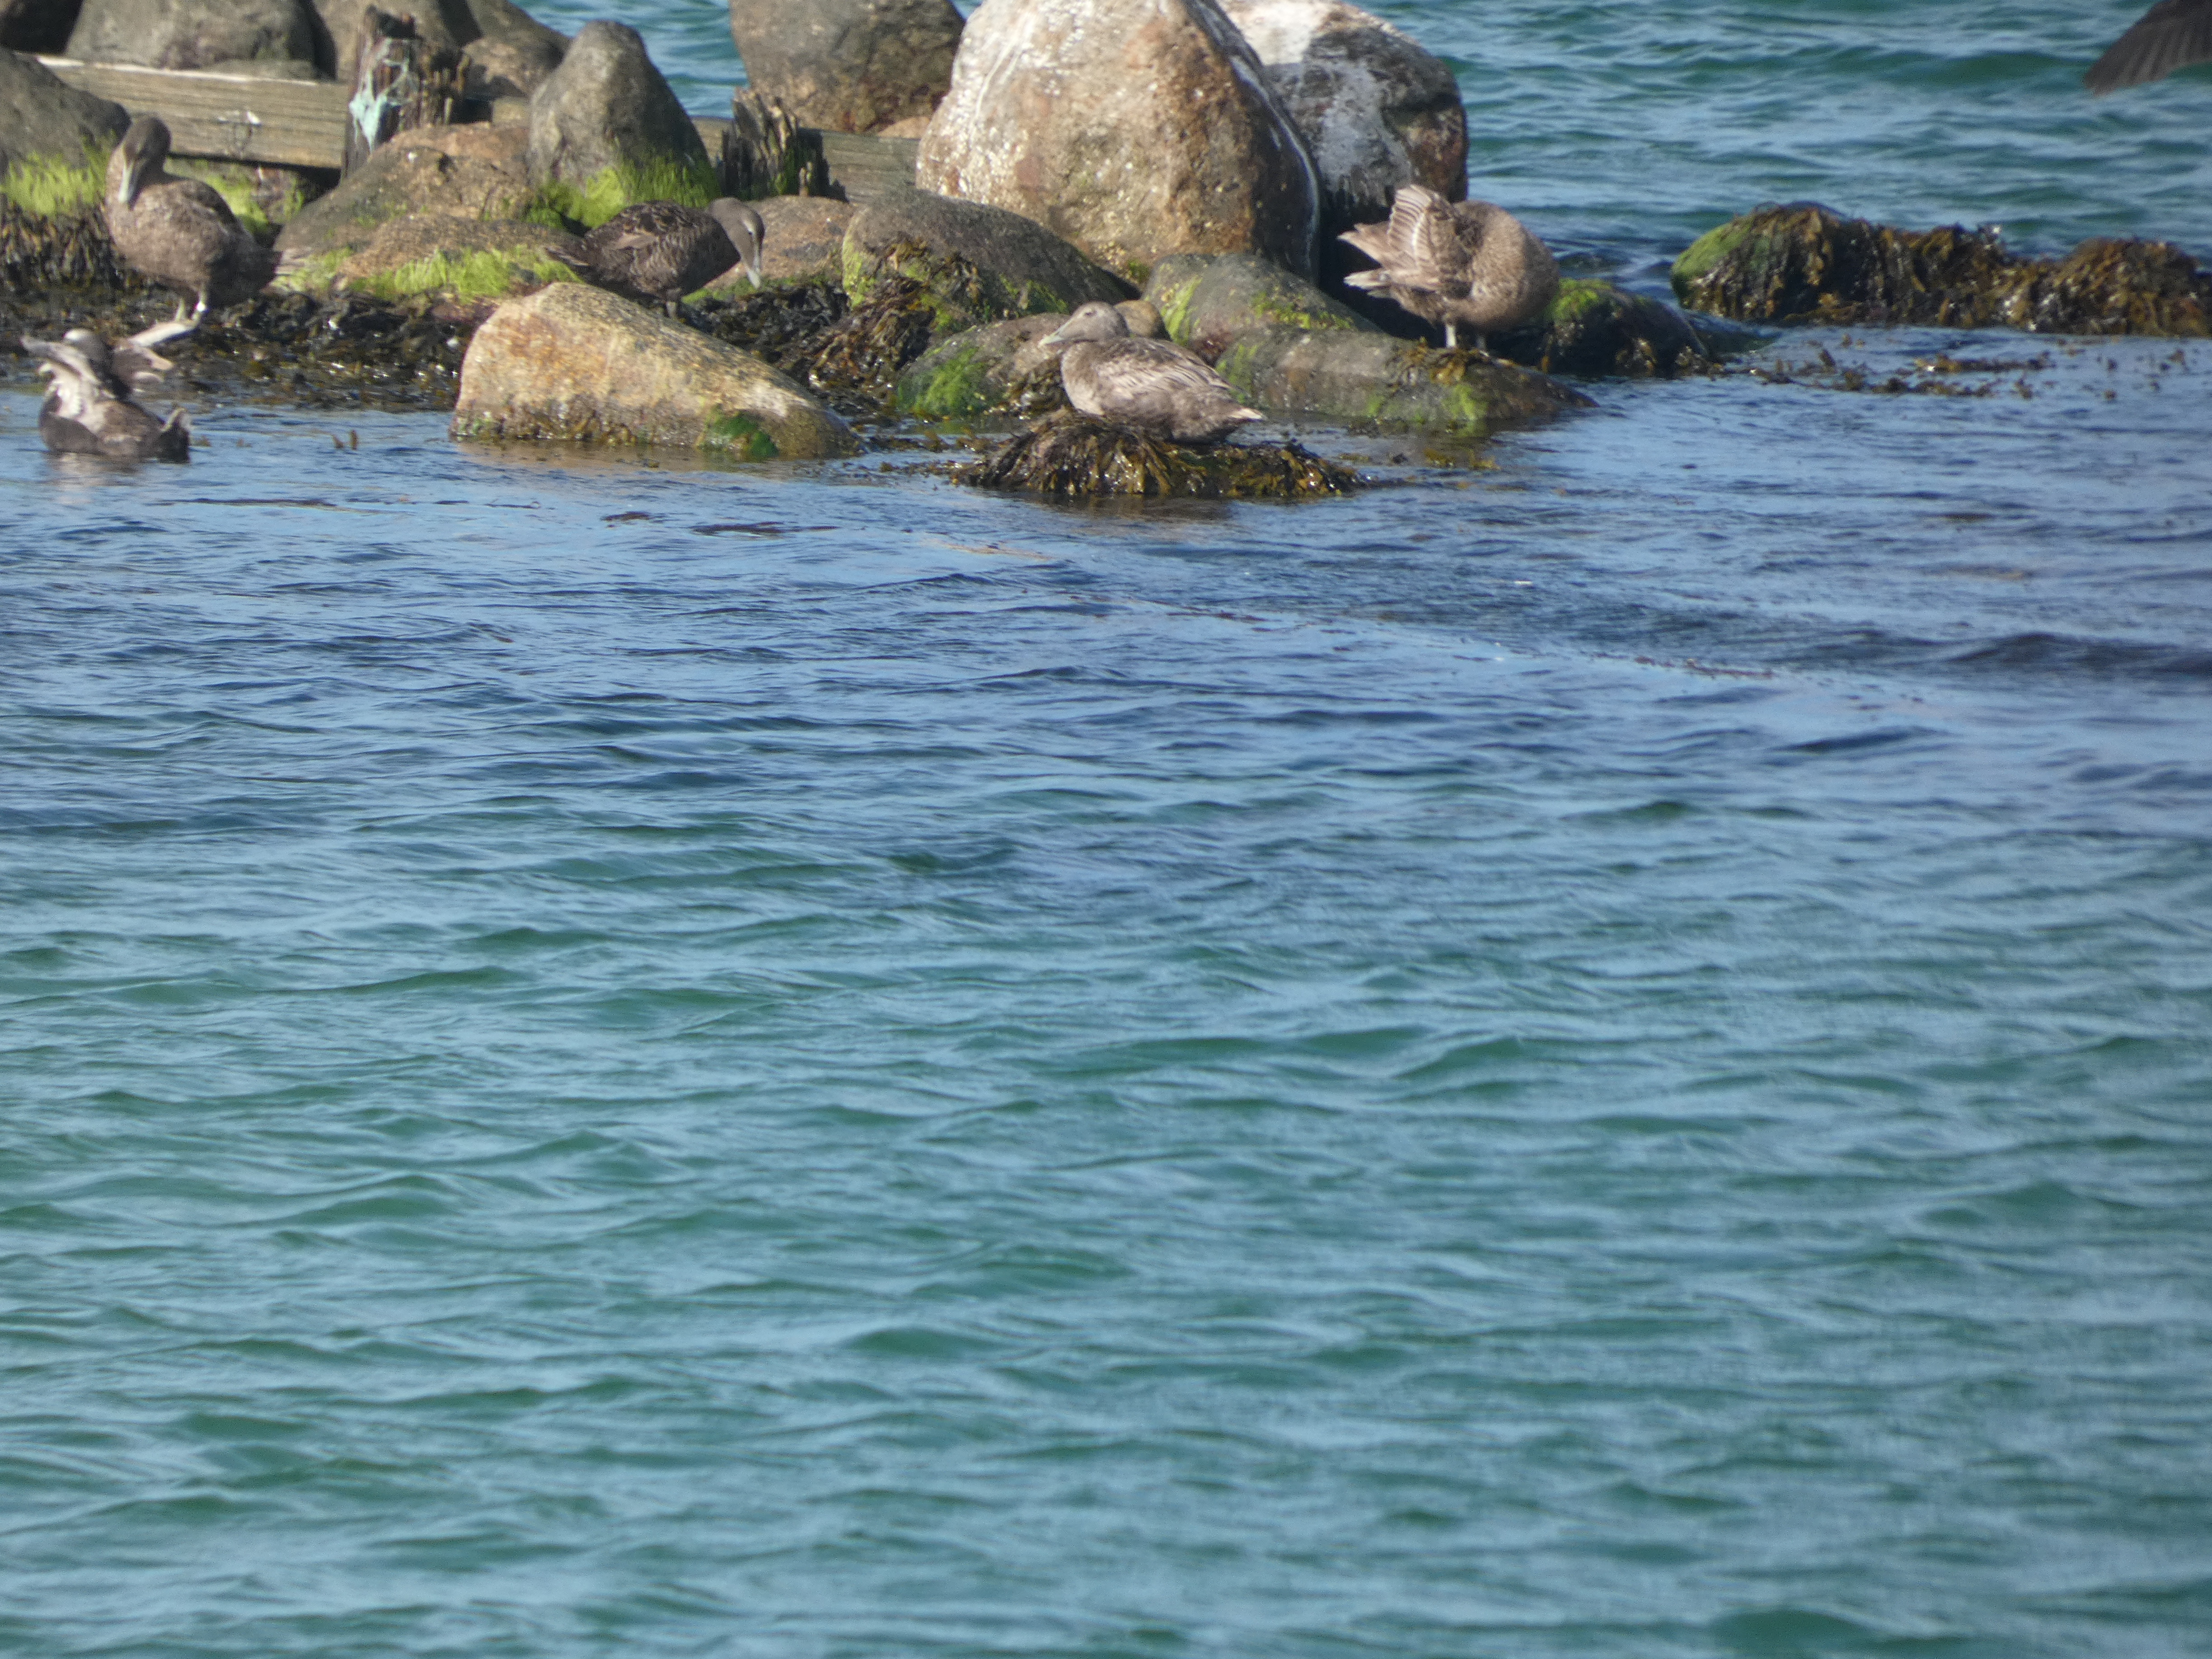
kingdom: Animalia
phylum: Chordata
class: Aves
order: Anseriformes
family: Anatidae
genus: Somateria
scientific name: Somateria mollissima
